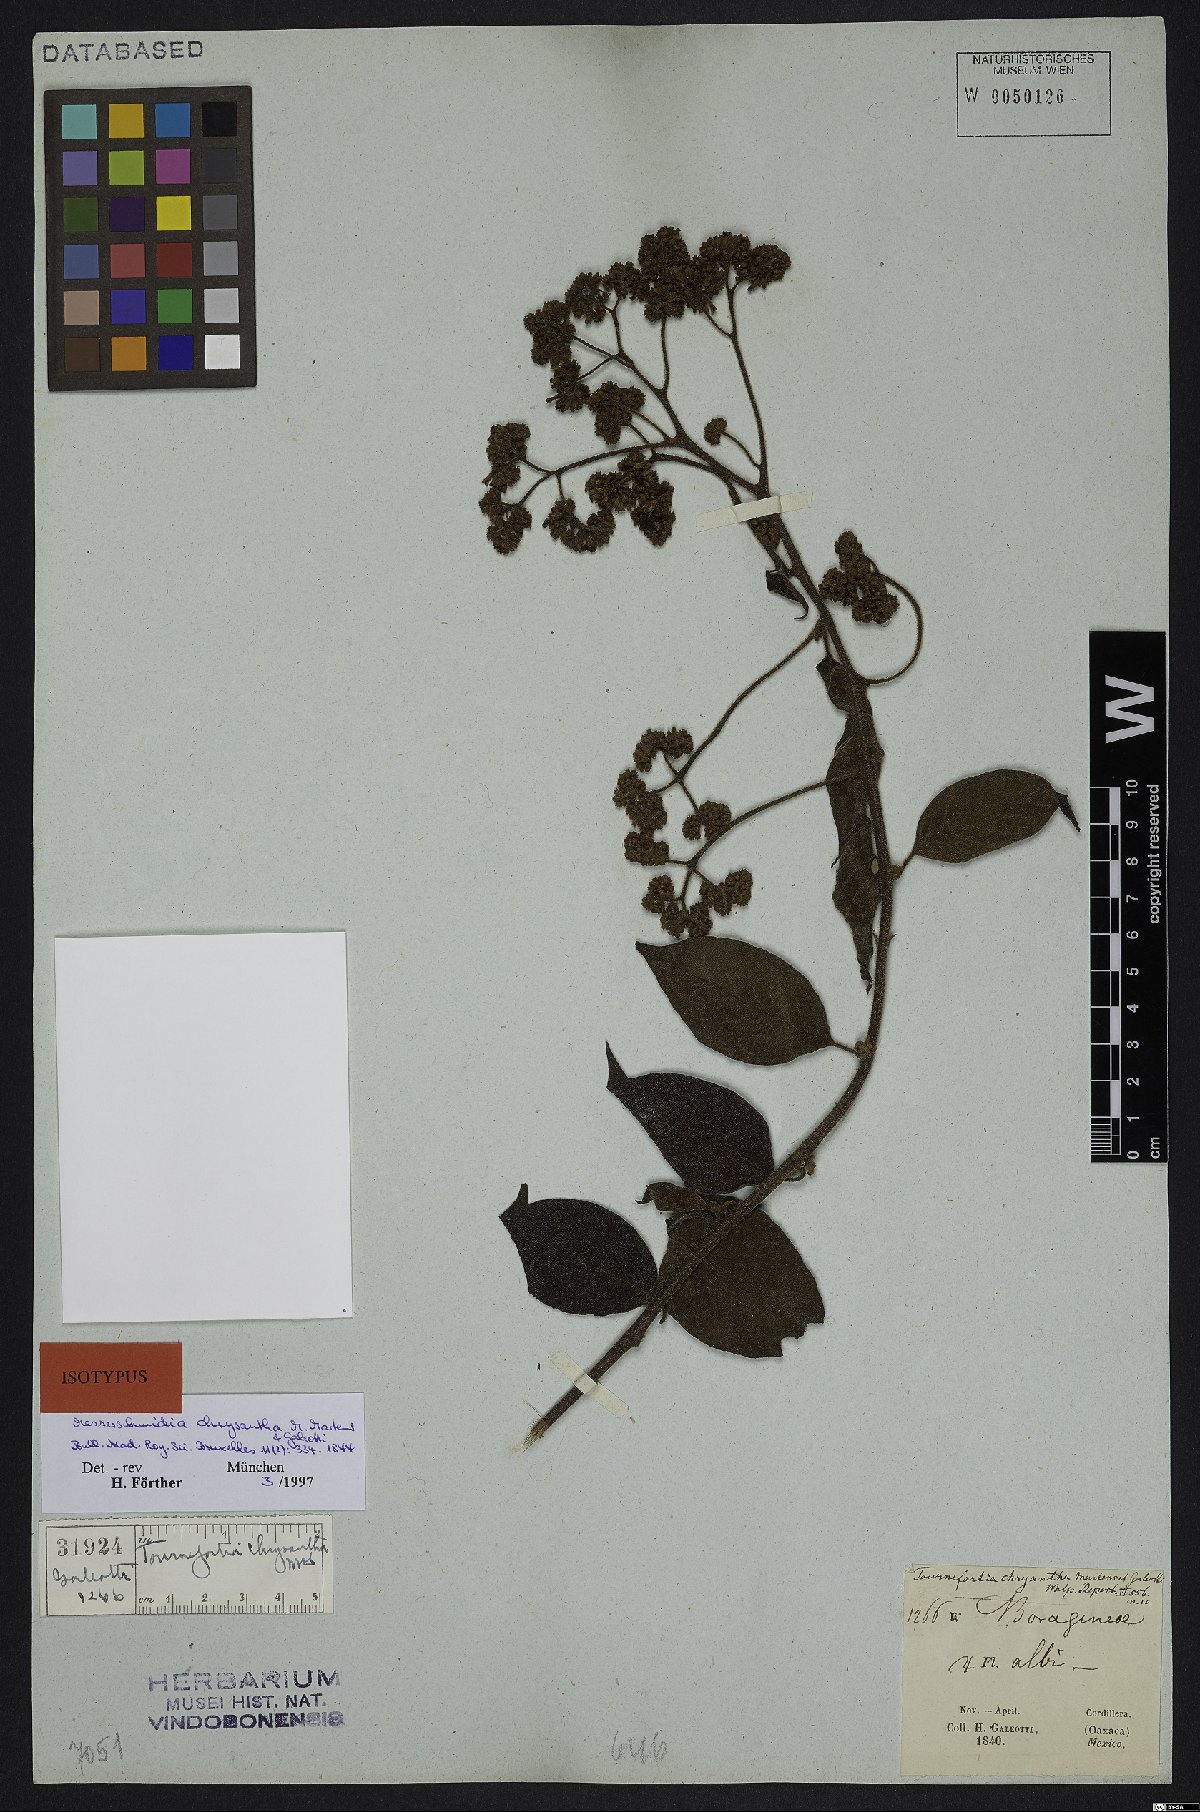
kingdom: Plantae
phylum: Tracheophyta
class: Magnoliopsida
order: Boraginales
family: Heliotropiaceae
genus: Tournefortia
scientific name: Tournefortia chrysantha
